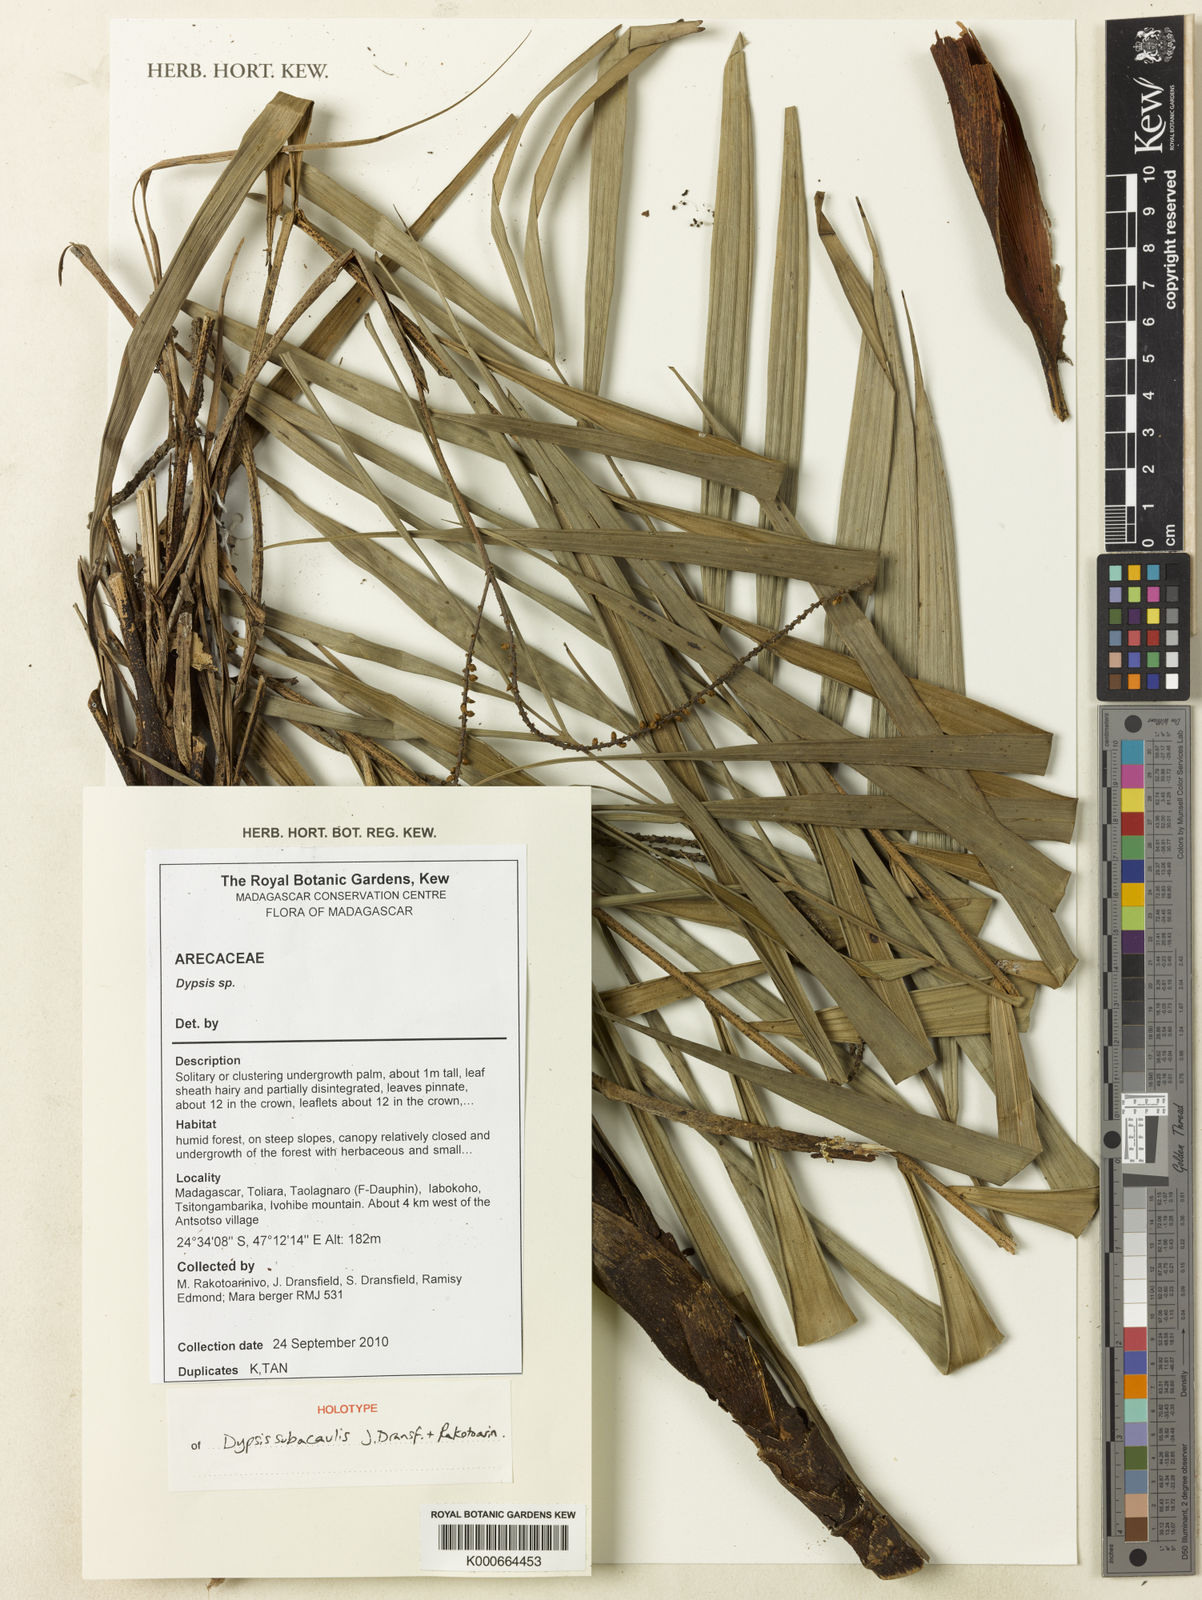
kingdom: Plantae
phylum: Tracheophyta
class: Liliopsida
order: Arecales
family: Arecaceae
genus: Dypsis
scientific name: Dypsis subacaulis
